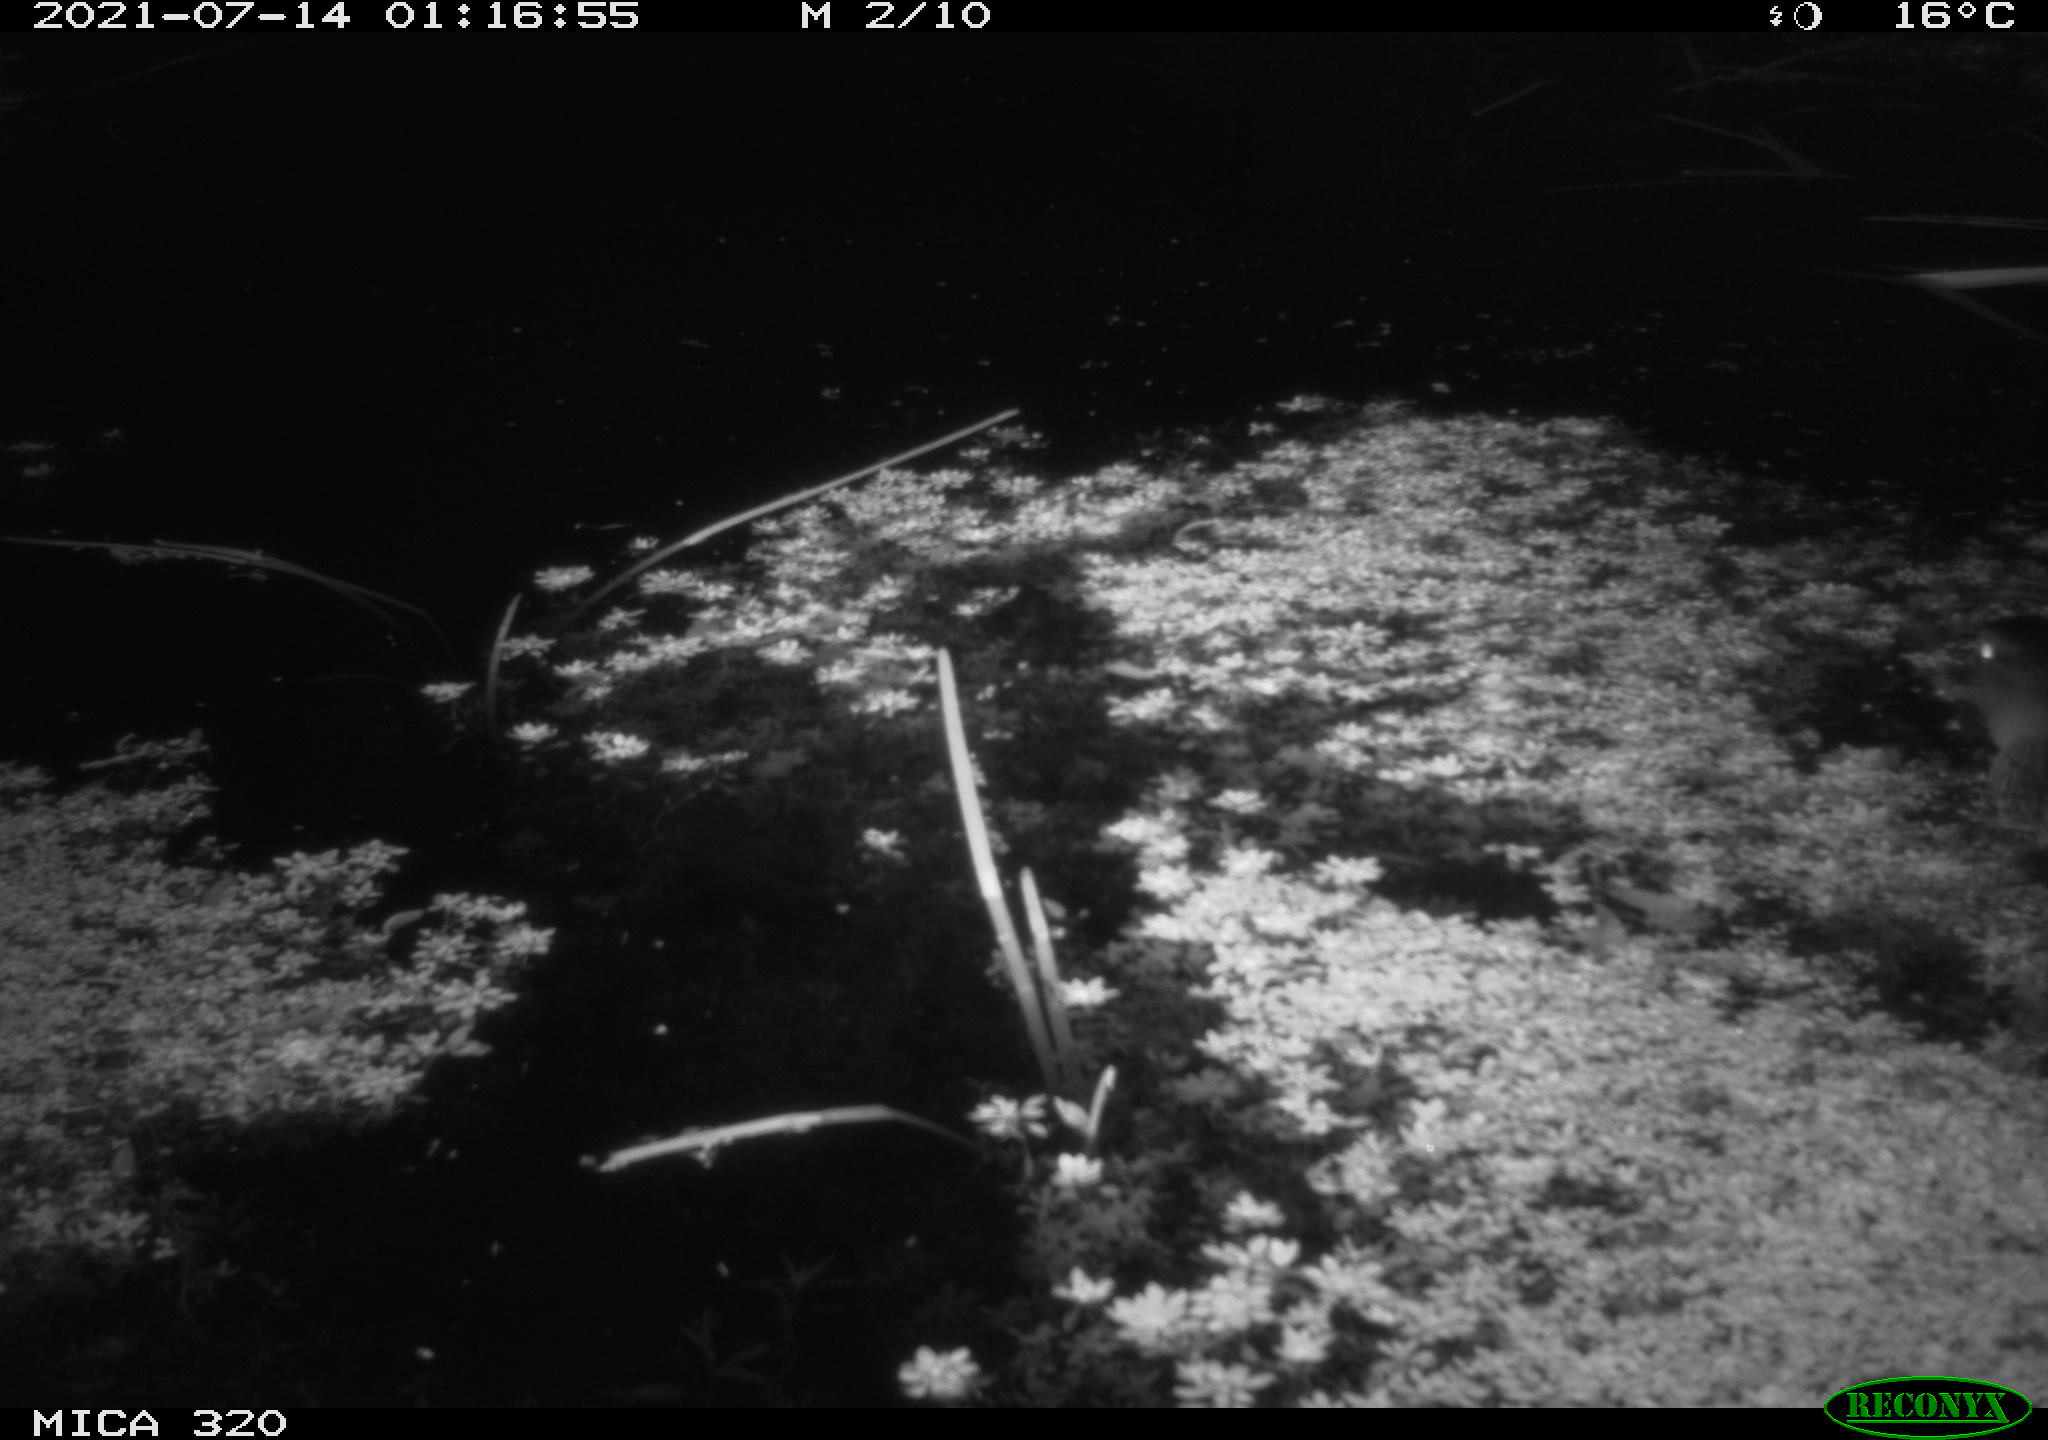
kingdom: Animalia
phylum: Chordata
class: Aves
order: Anseriformes
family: Anatidae
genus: Anas
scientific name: Anas platyrhynchos
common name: Mallard
